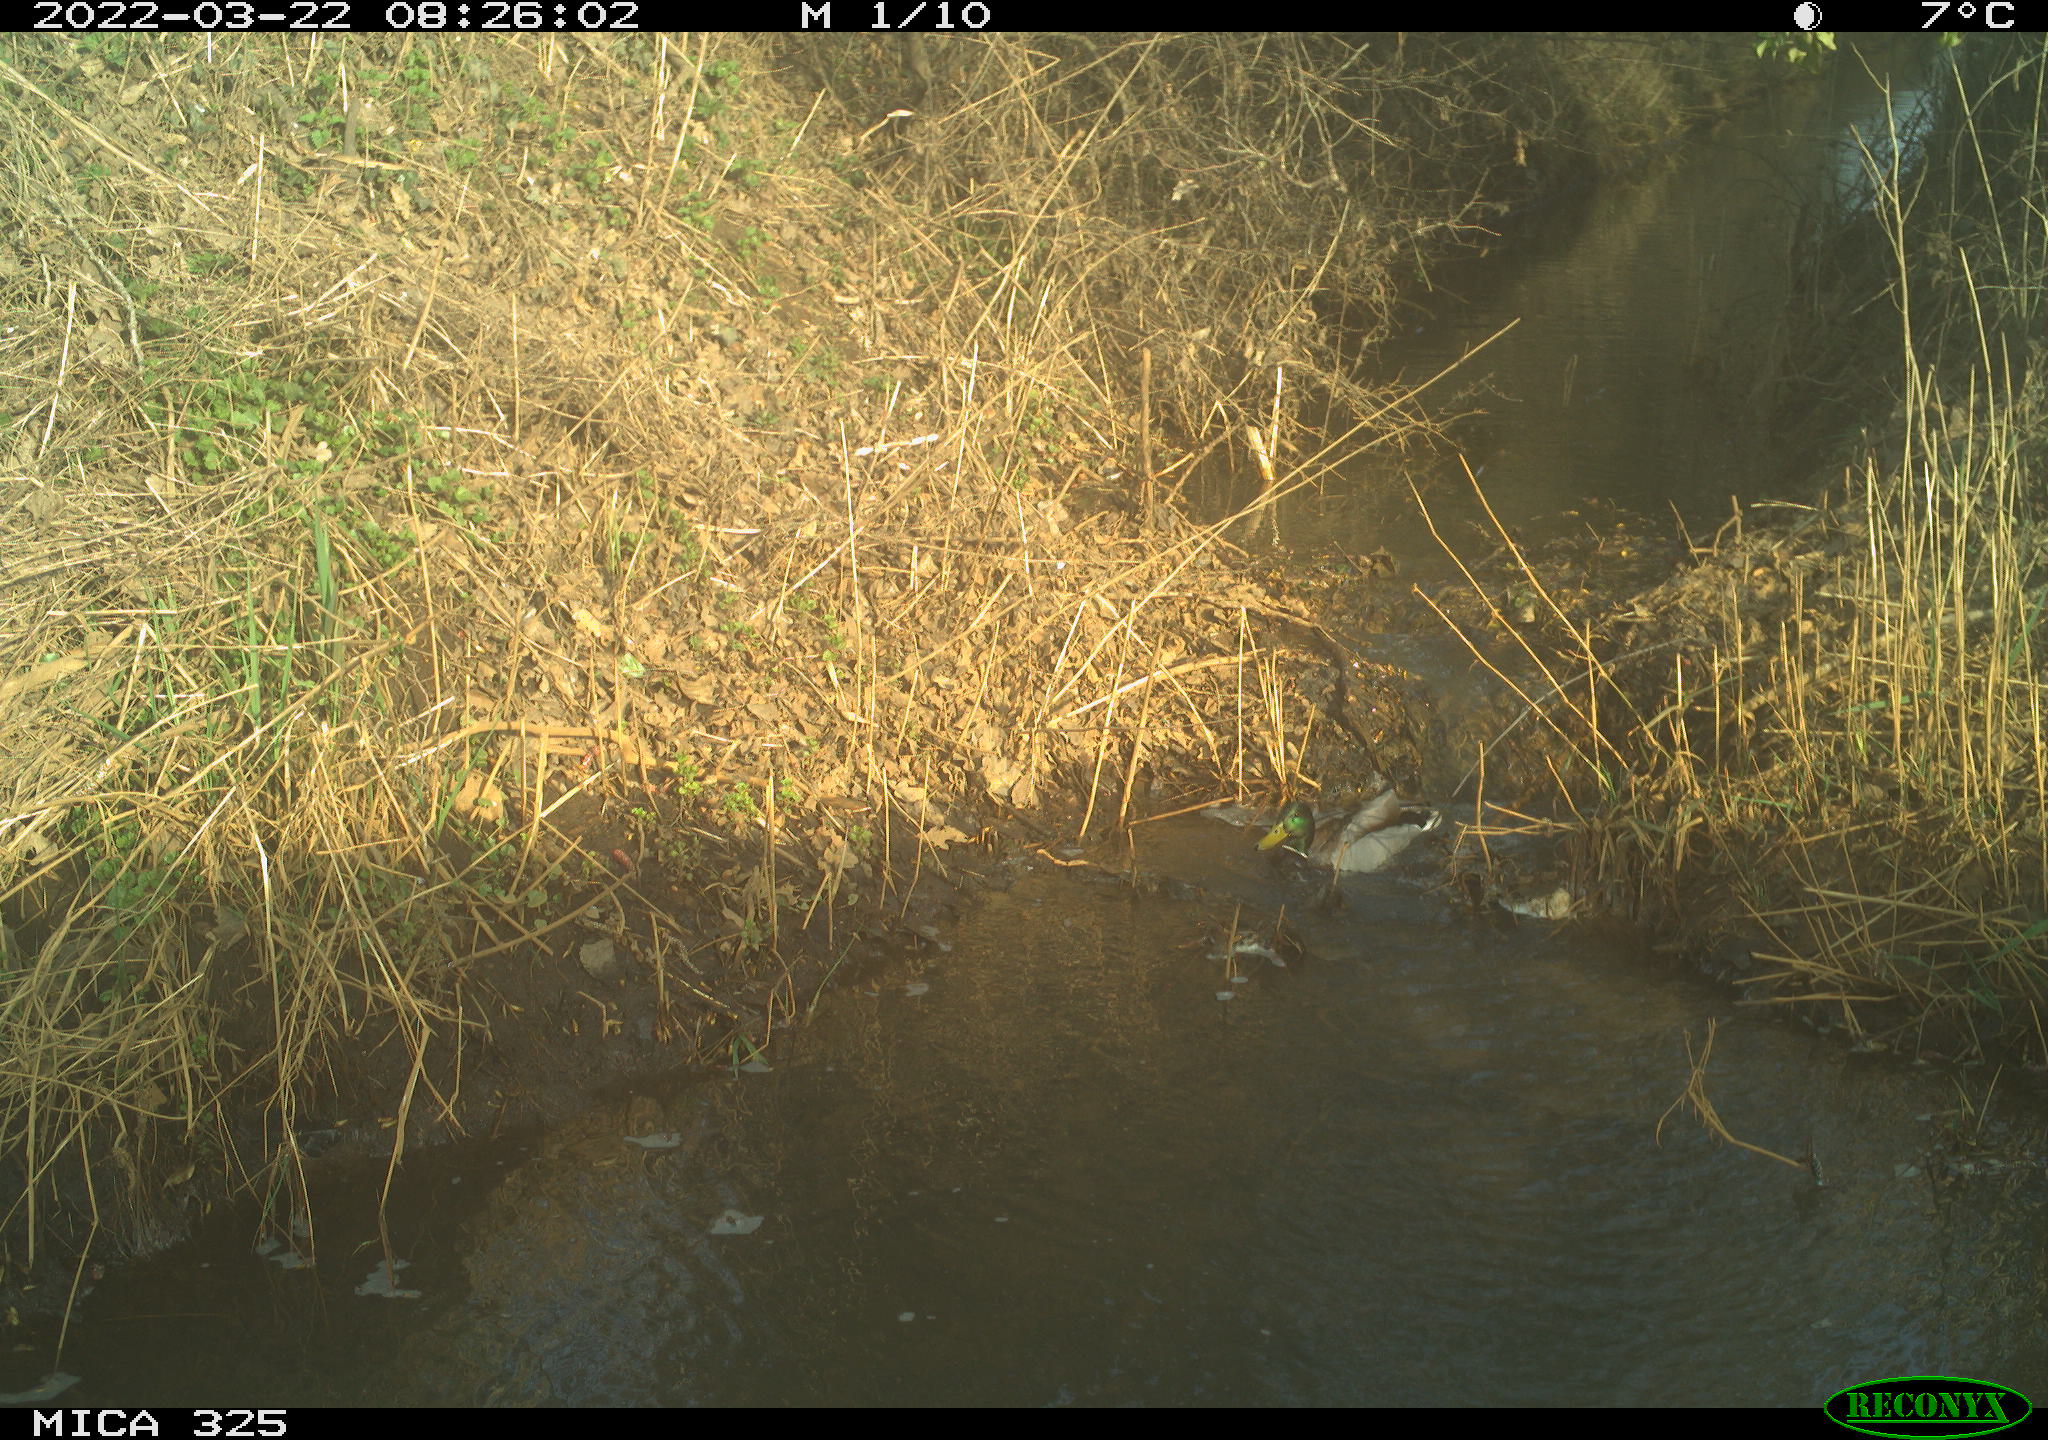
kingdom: Animalia
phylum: Chordata
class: Aves
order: Anseriformes
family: Anatidae
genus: Anas
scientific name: Anas platyrhynchos
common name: Mallard
